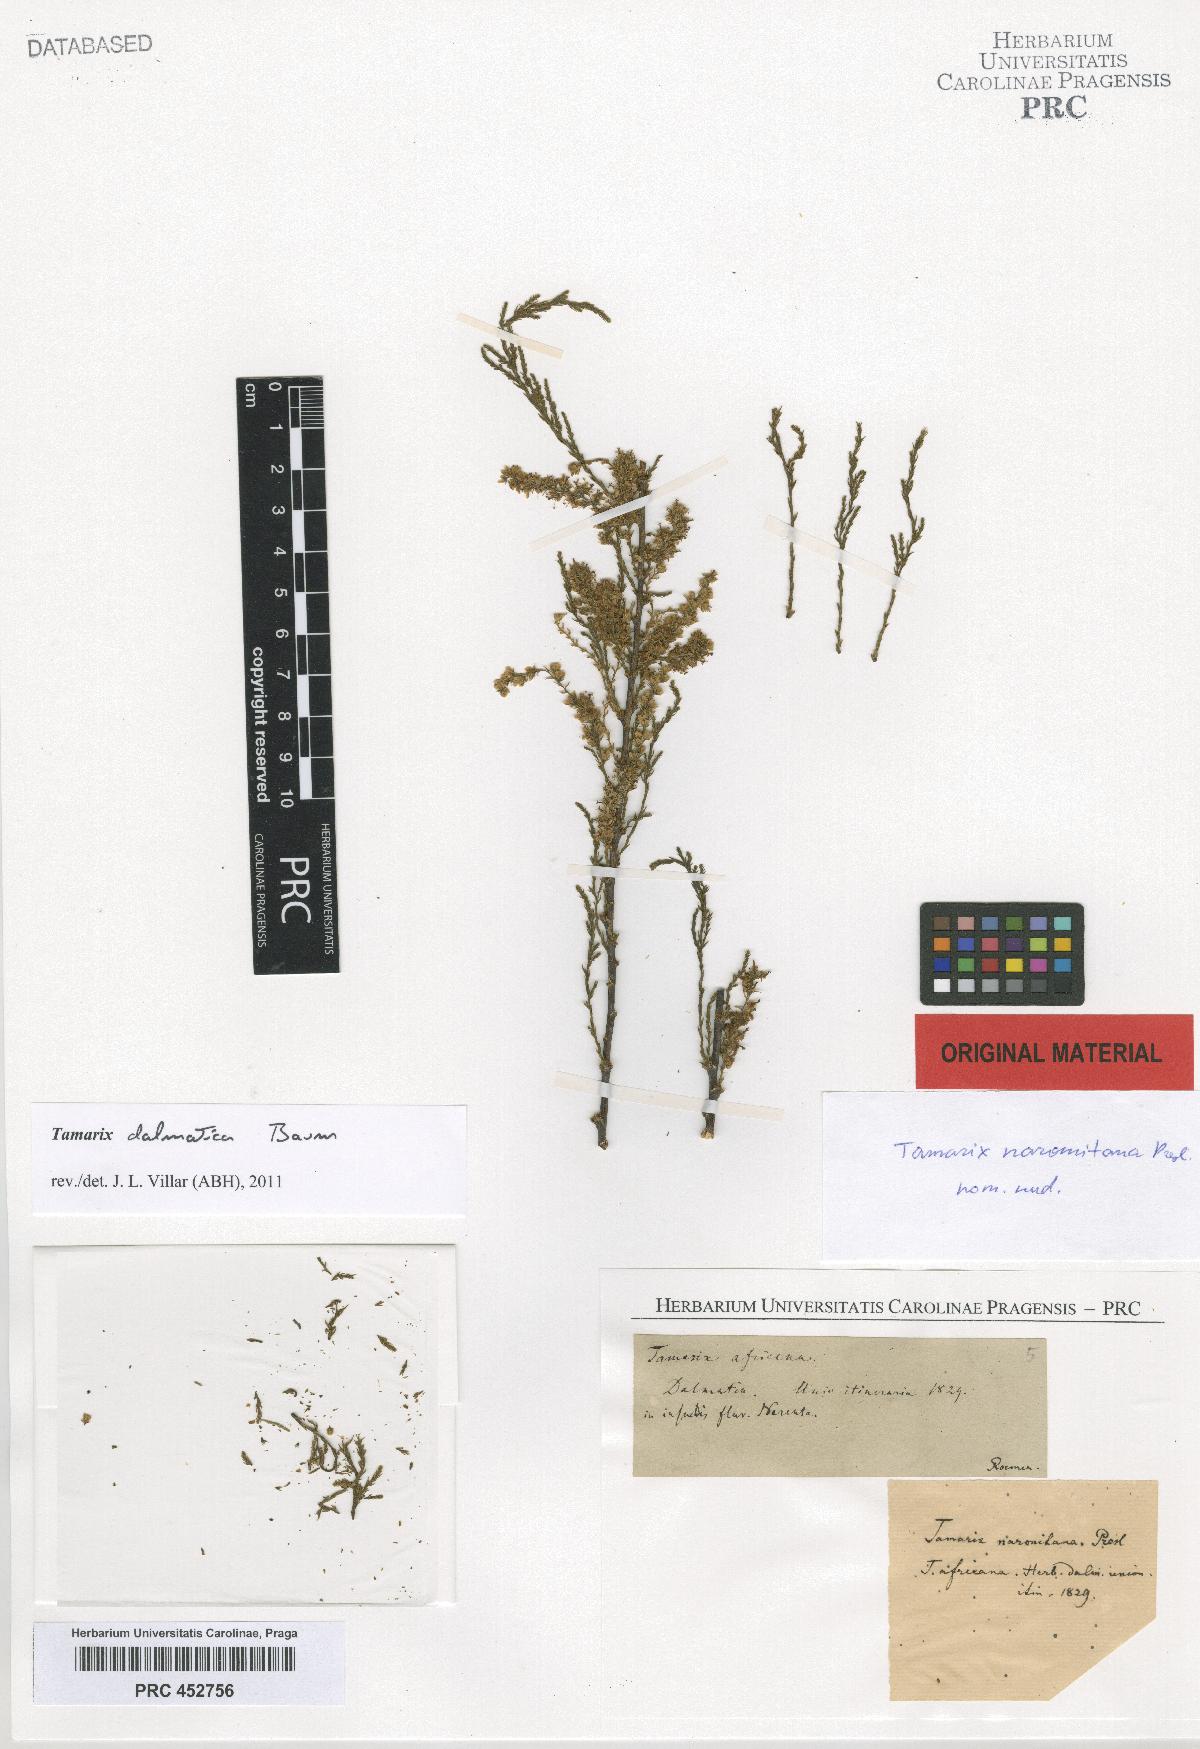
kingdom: Plantae
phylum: Tracheophyta
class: Magnoliopsida
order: Caryophyllales
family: Tamaricaceae
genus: Tamarix
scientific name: Tamarix
